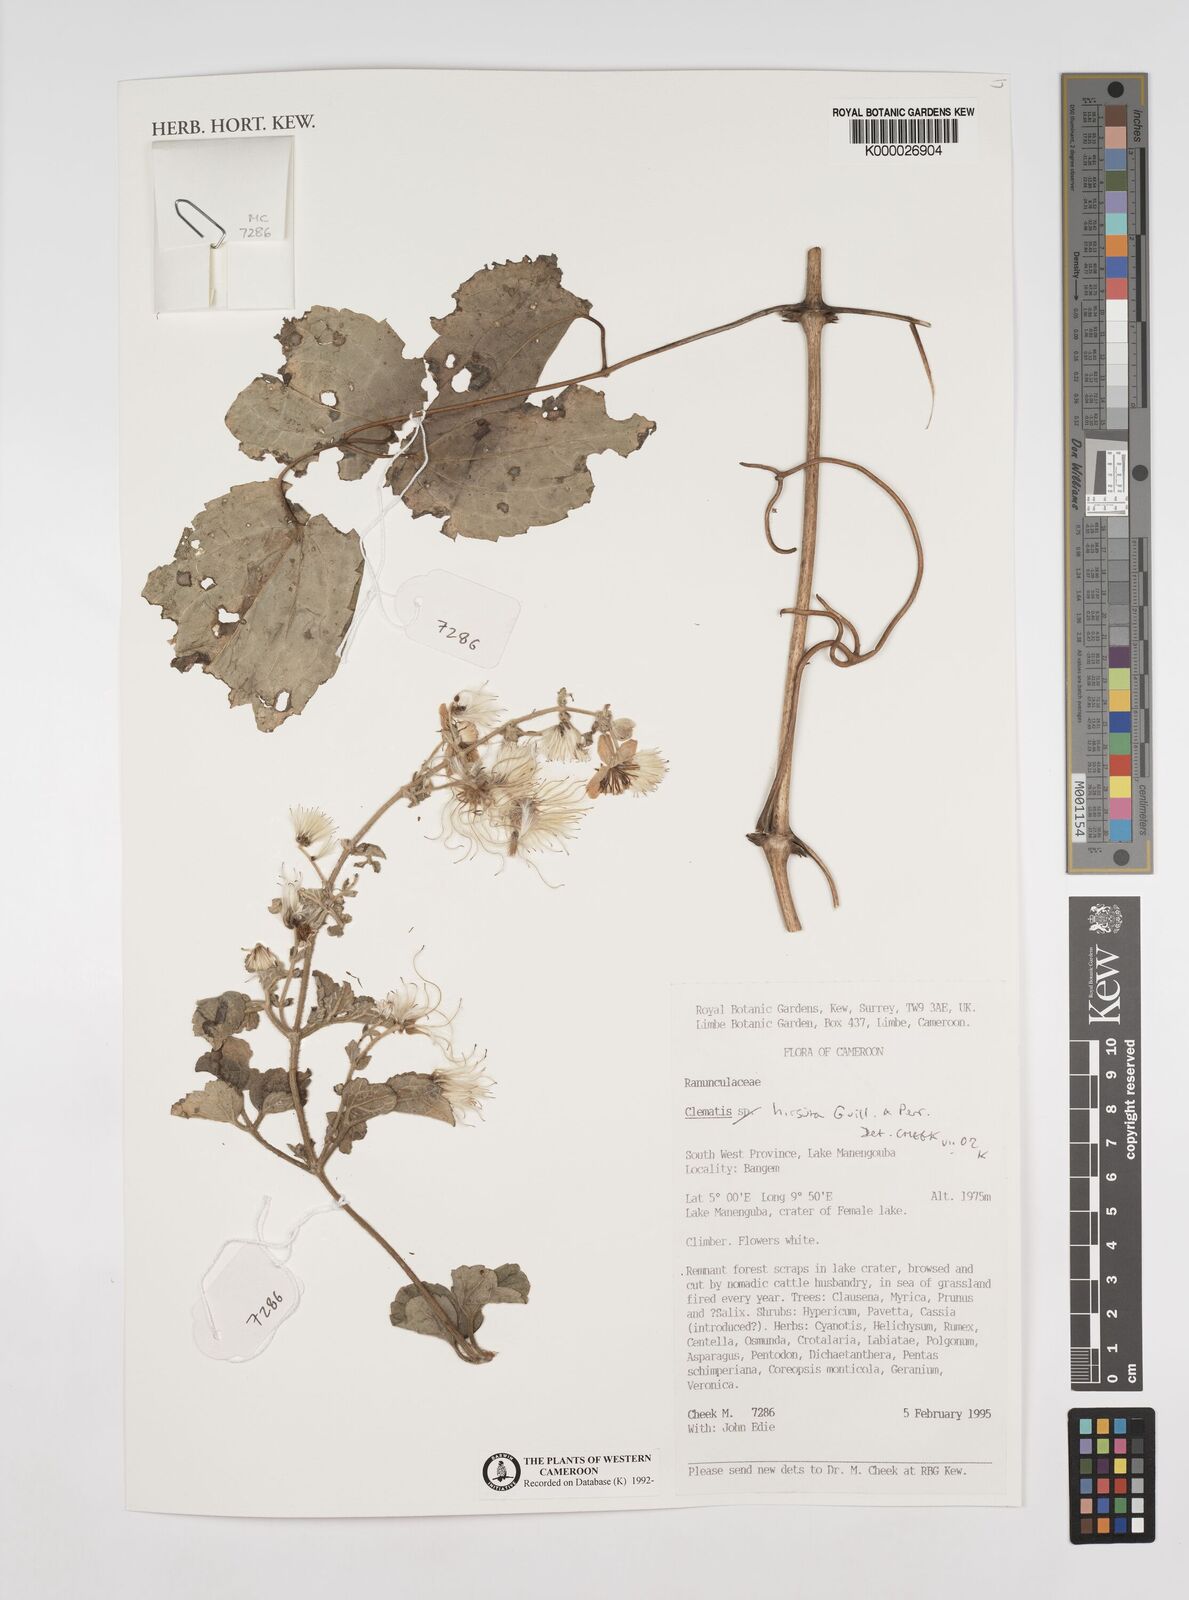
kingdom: Plantae
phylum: Tracheophyta
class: Magnoliopsida
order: Ranunculales
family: Ranunculaceae
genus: Clematis
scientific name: Clematis hirsuta
